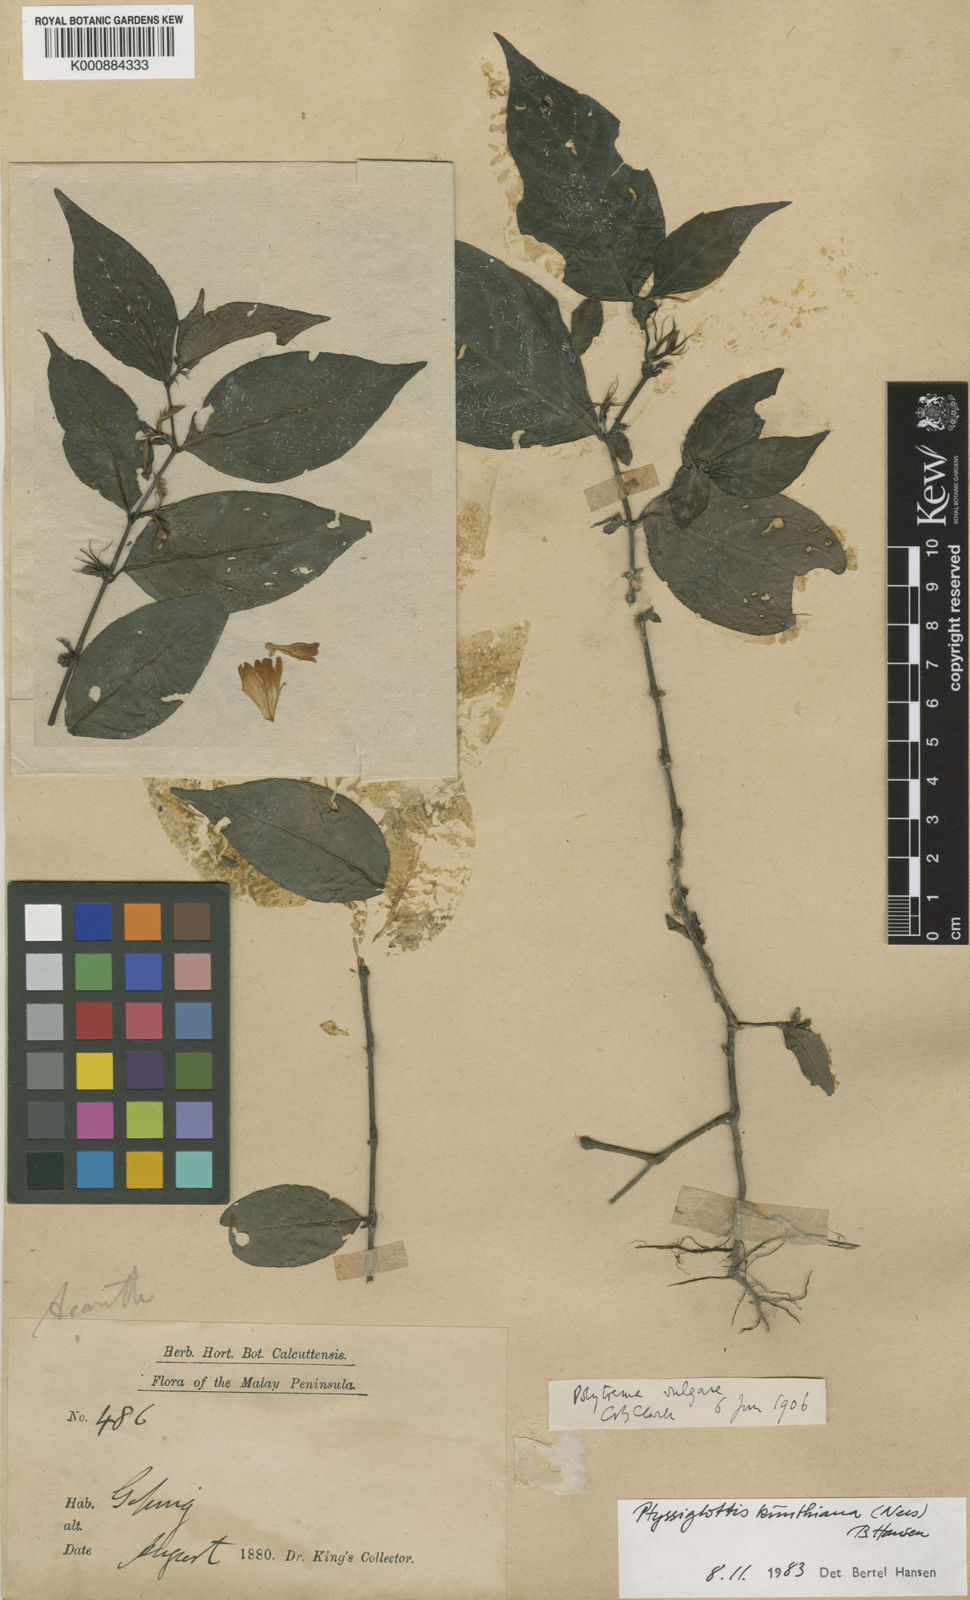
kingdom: Plantae
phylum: Tracheophyta
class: Magnoliopsida
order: Lamiales
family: Acanthaceae
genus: Ptyssiglottis
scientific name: Ptyssiglottis kunthiana
